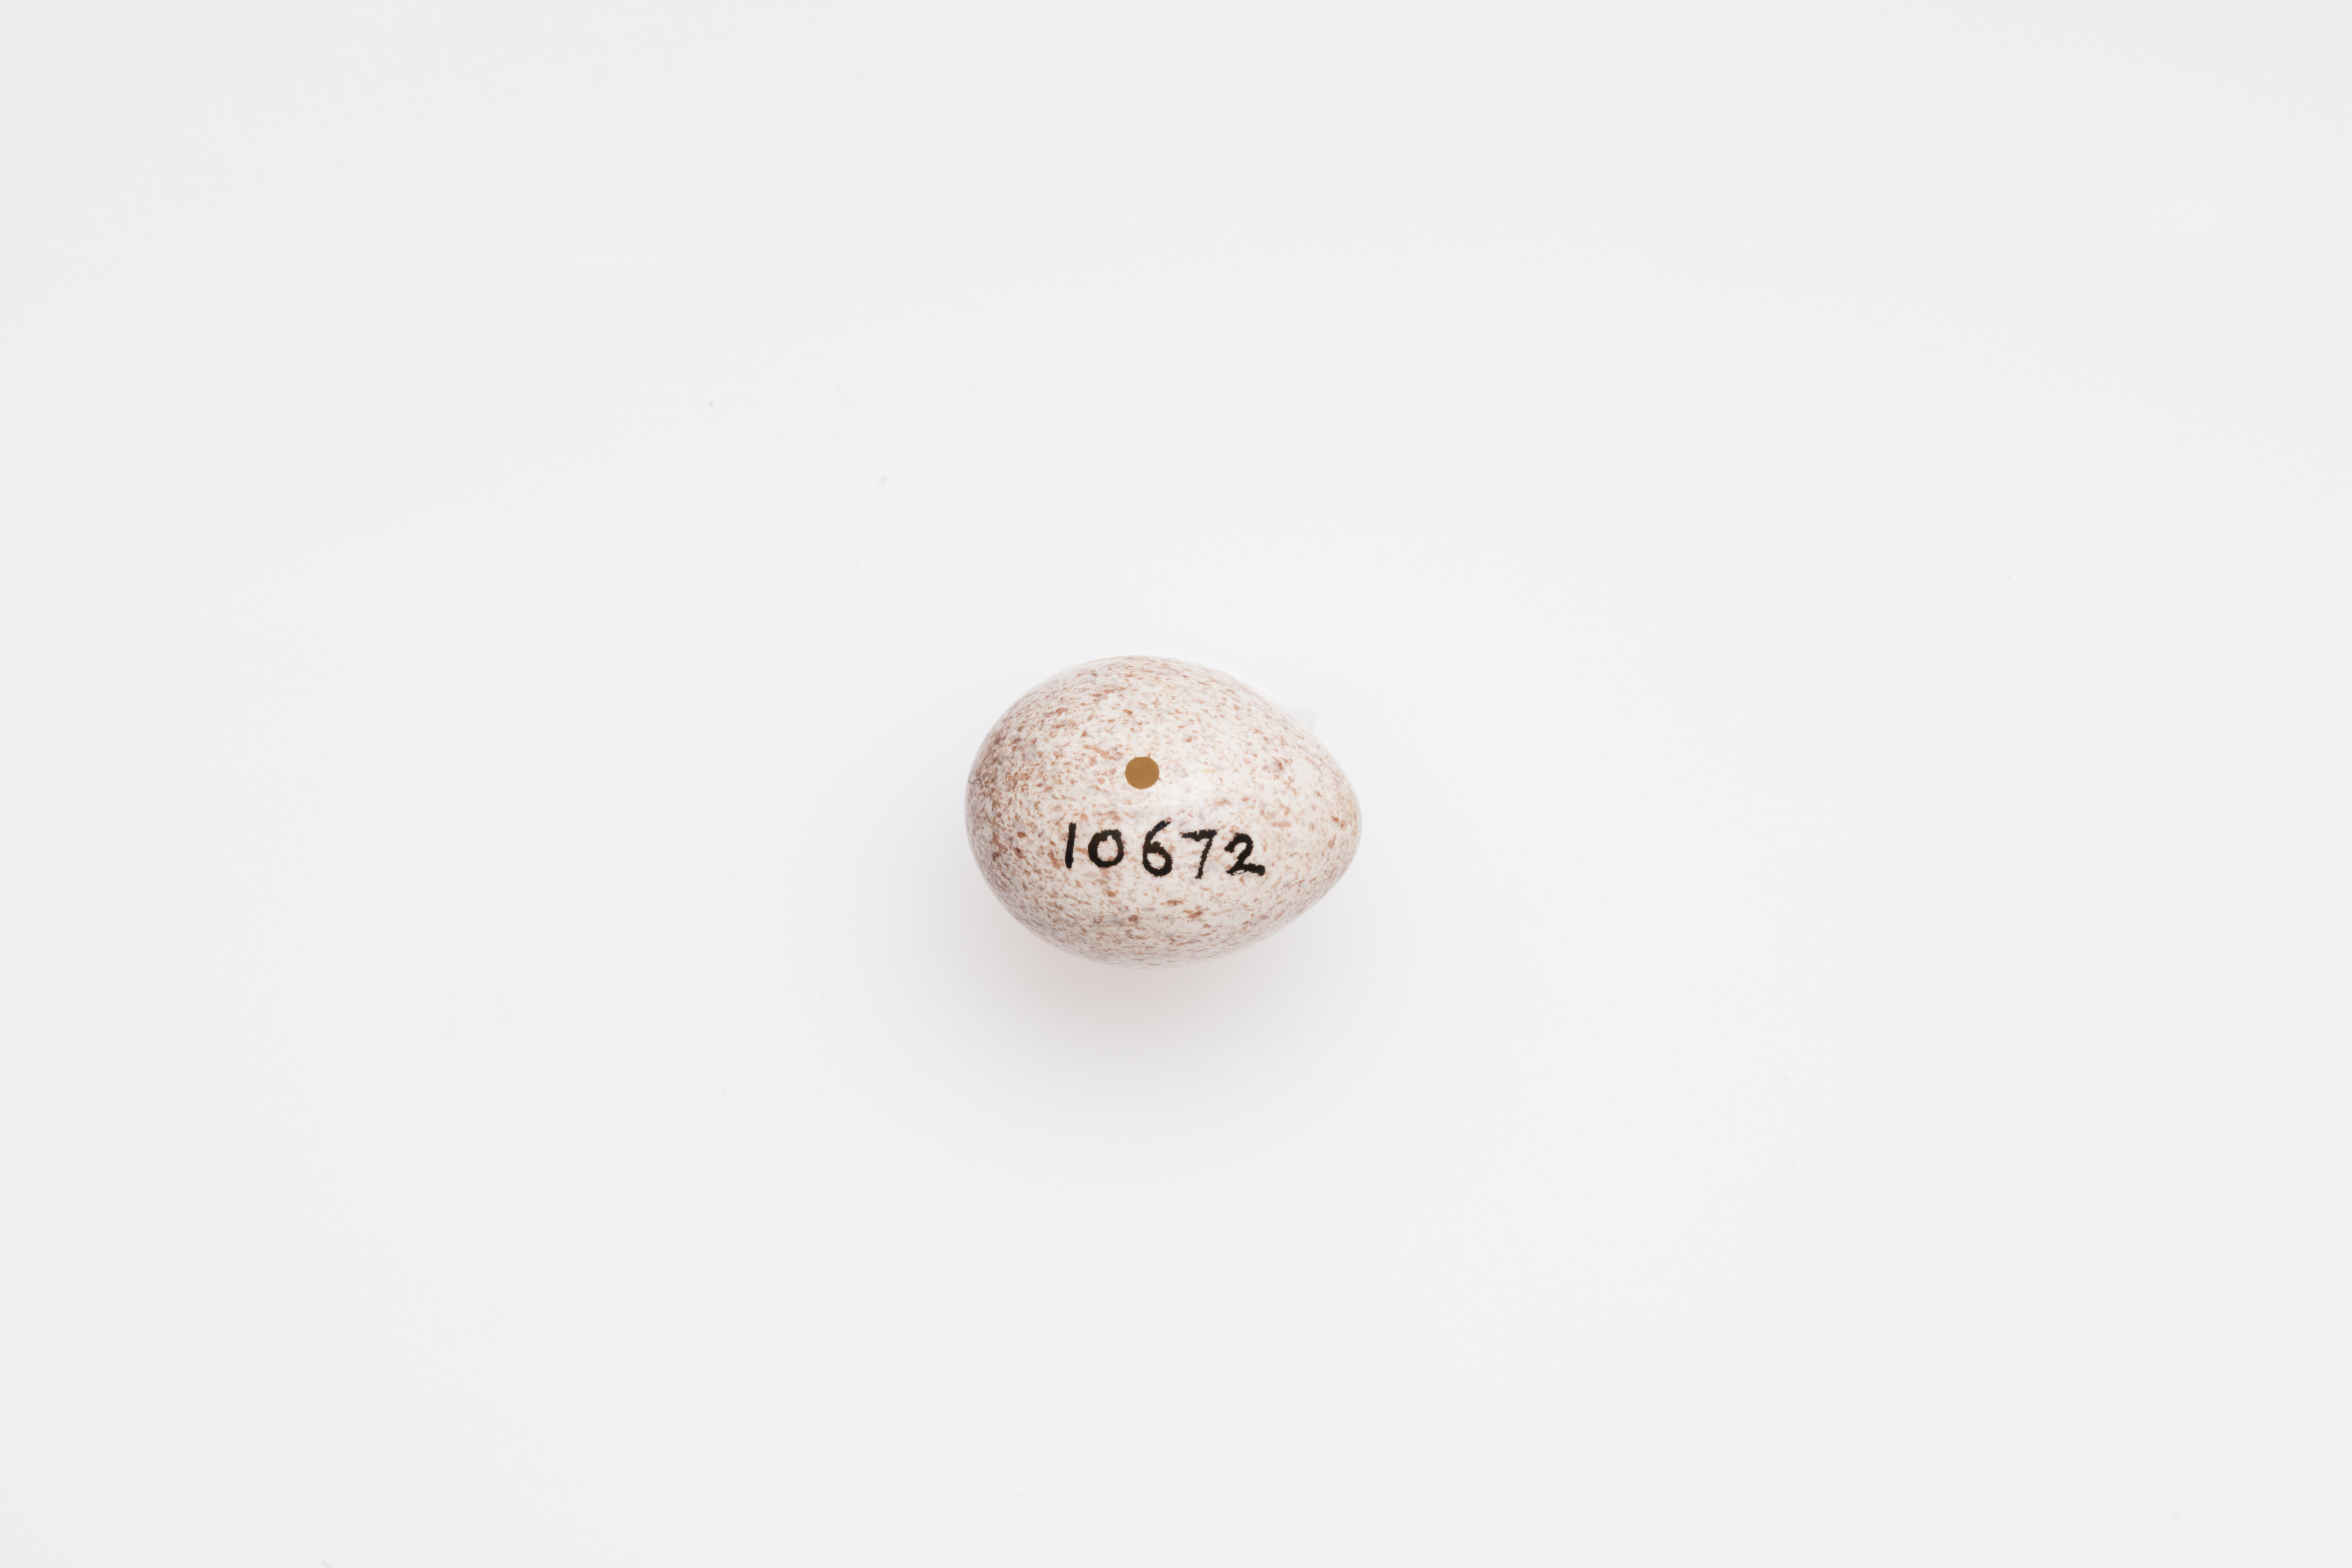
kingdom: Animalia
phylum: Chordata
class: Aves
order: Passeriformes
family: Locustellidae
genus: Locustella
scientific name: Locustella naevia
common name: Common grasshopper warbler
